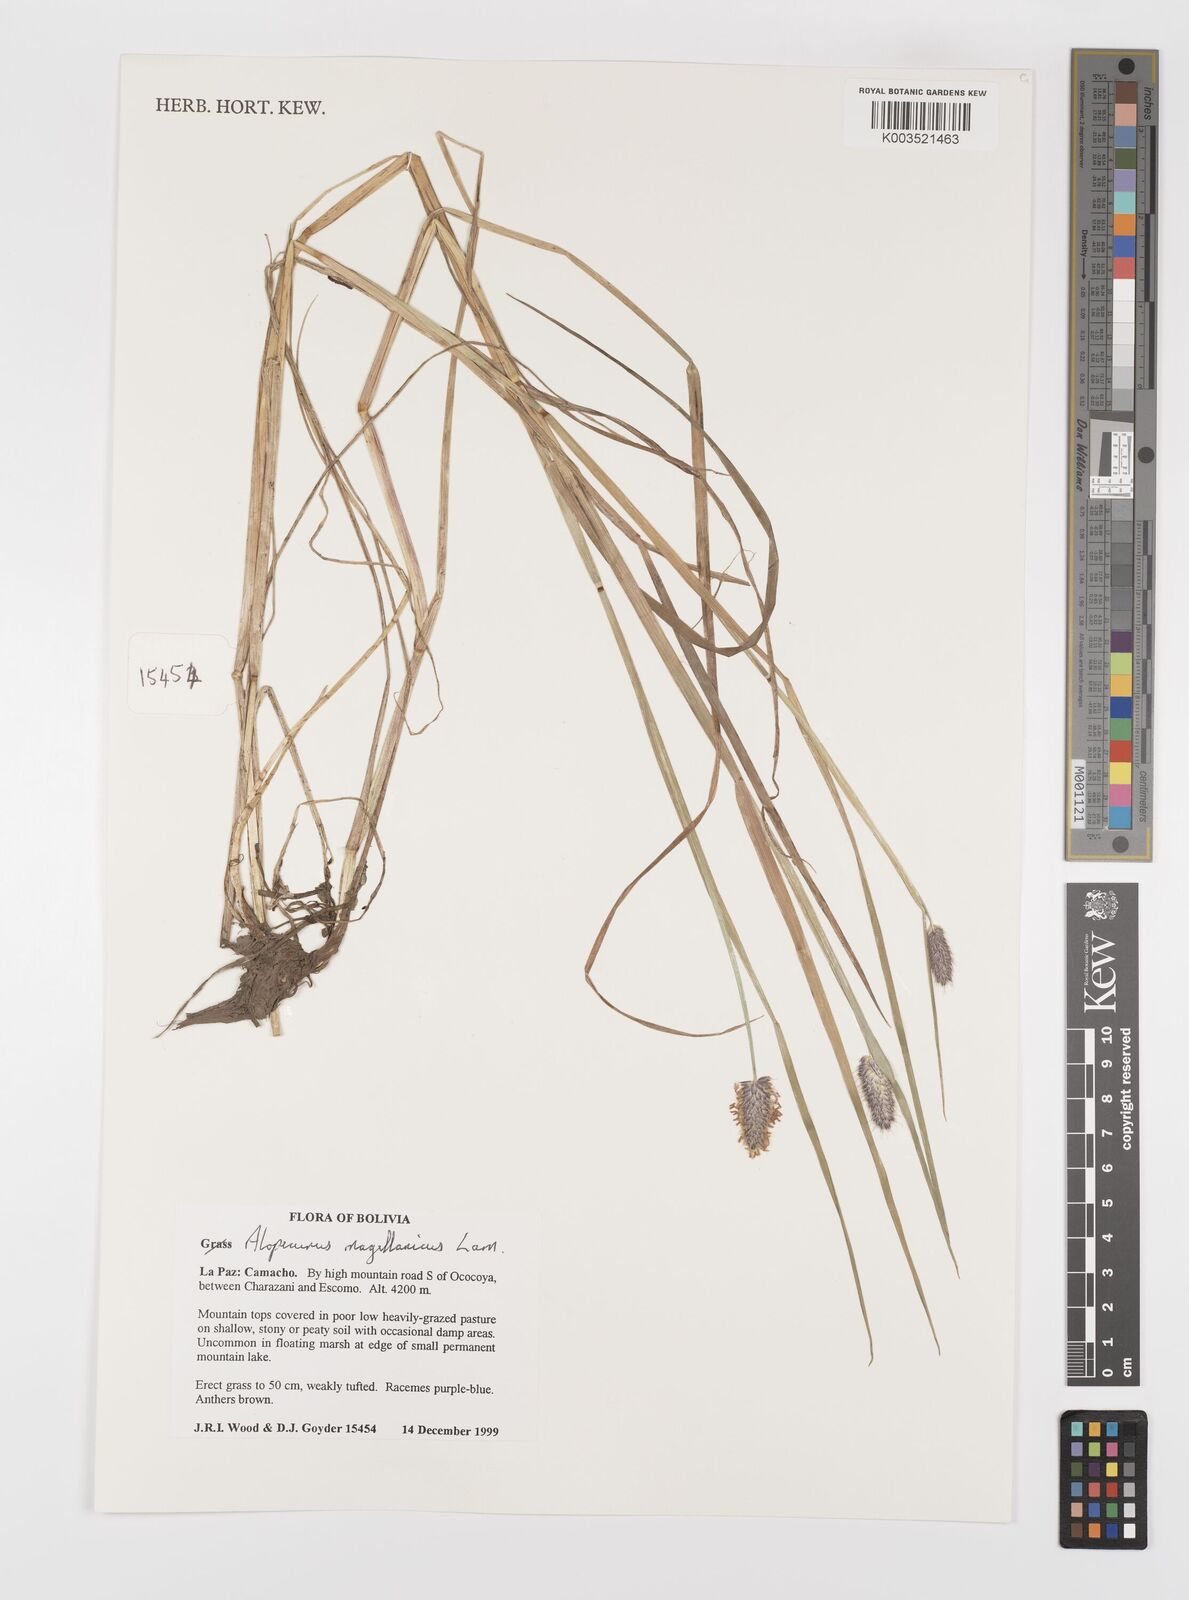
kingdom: Plantae
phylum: Tracheophyta
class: Liliopsida
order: Poales
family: Poaceae
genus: Alopecurus
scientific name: Alopecurus magellanicus
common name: Alpine foxtail
